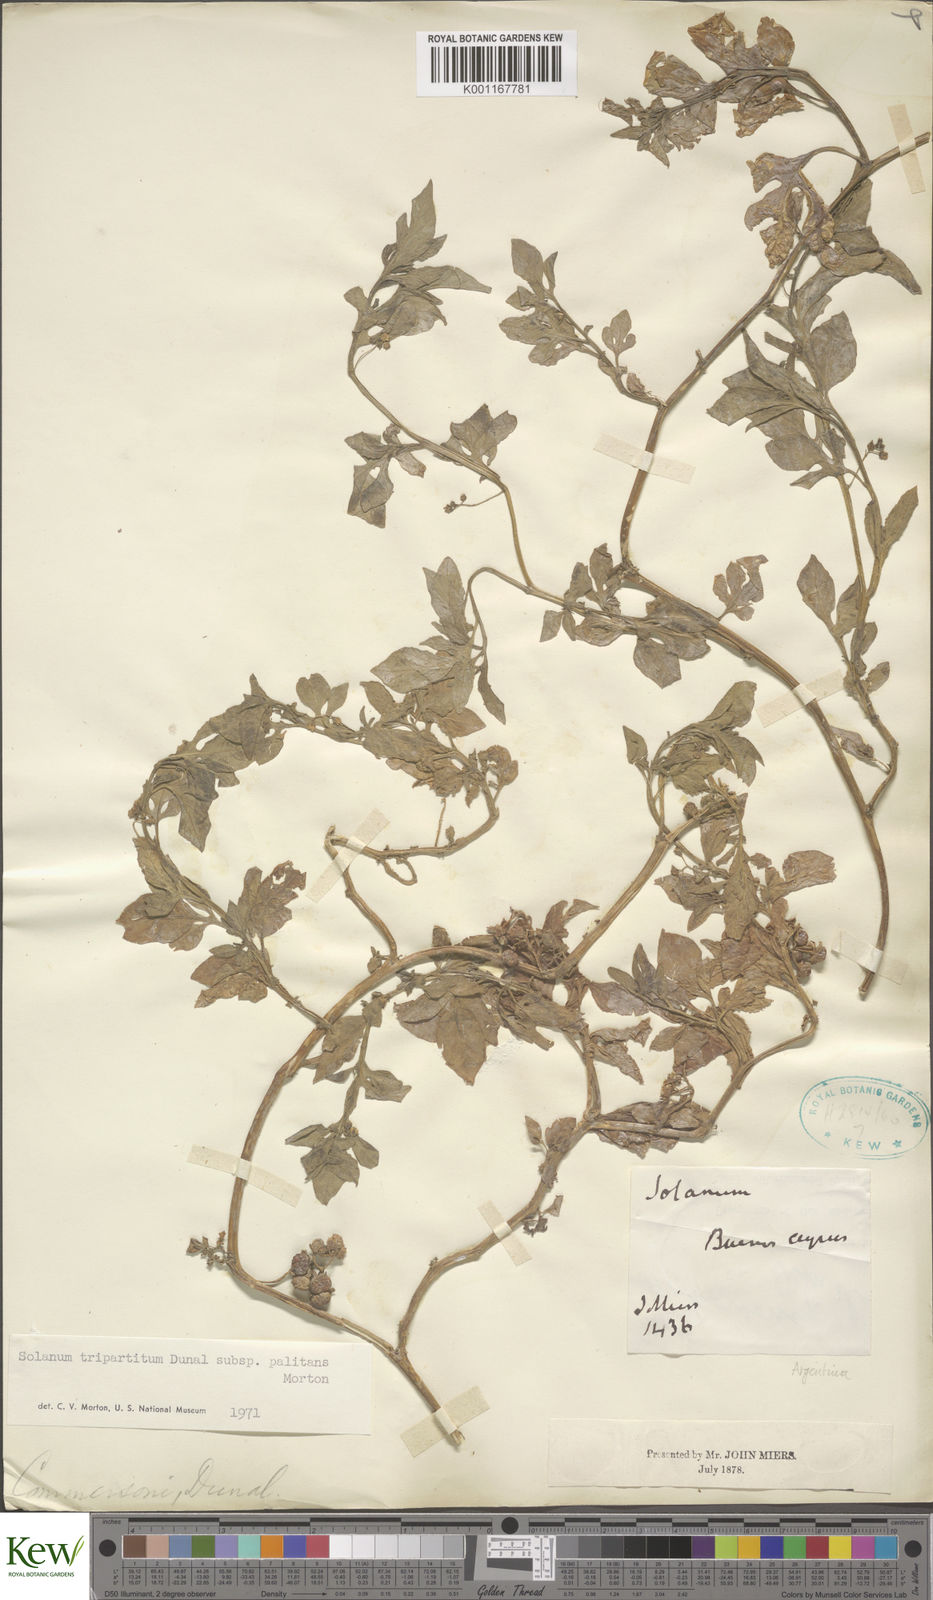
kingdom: Plantae
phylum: Tracheophyta
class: Magnoliopsida
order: Solanales
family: Solanaceae
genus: Solanum
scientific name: Solanum palitans
